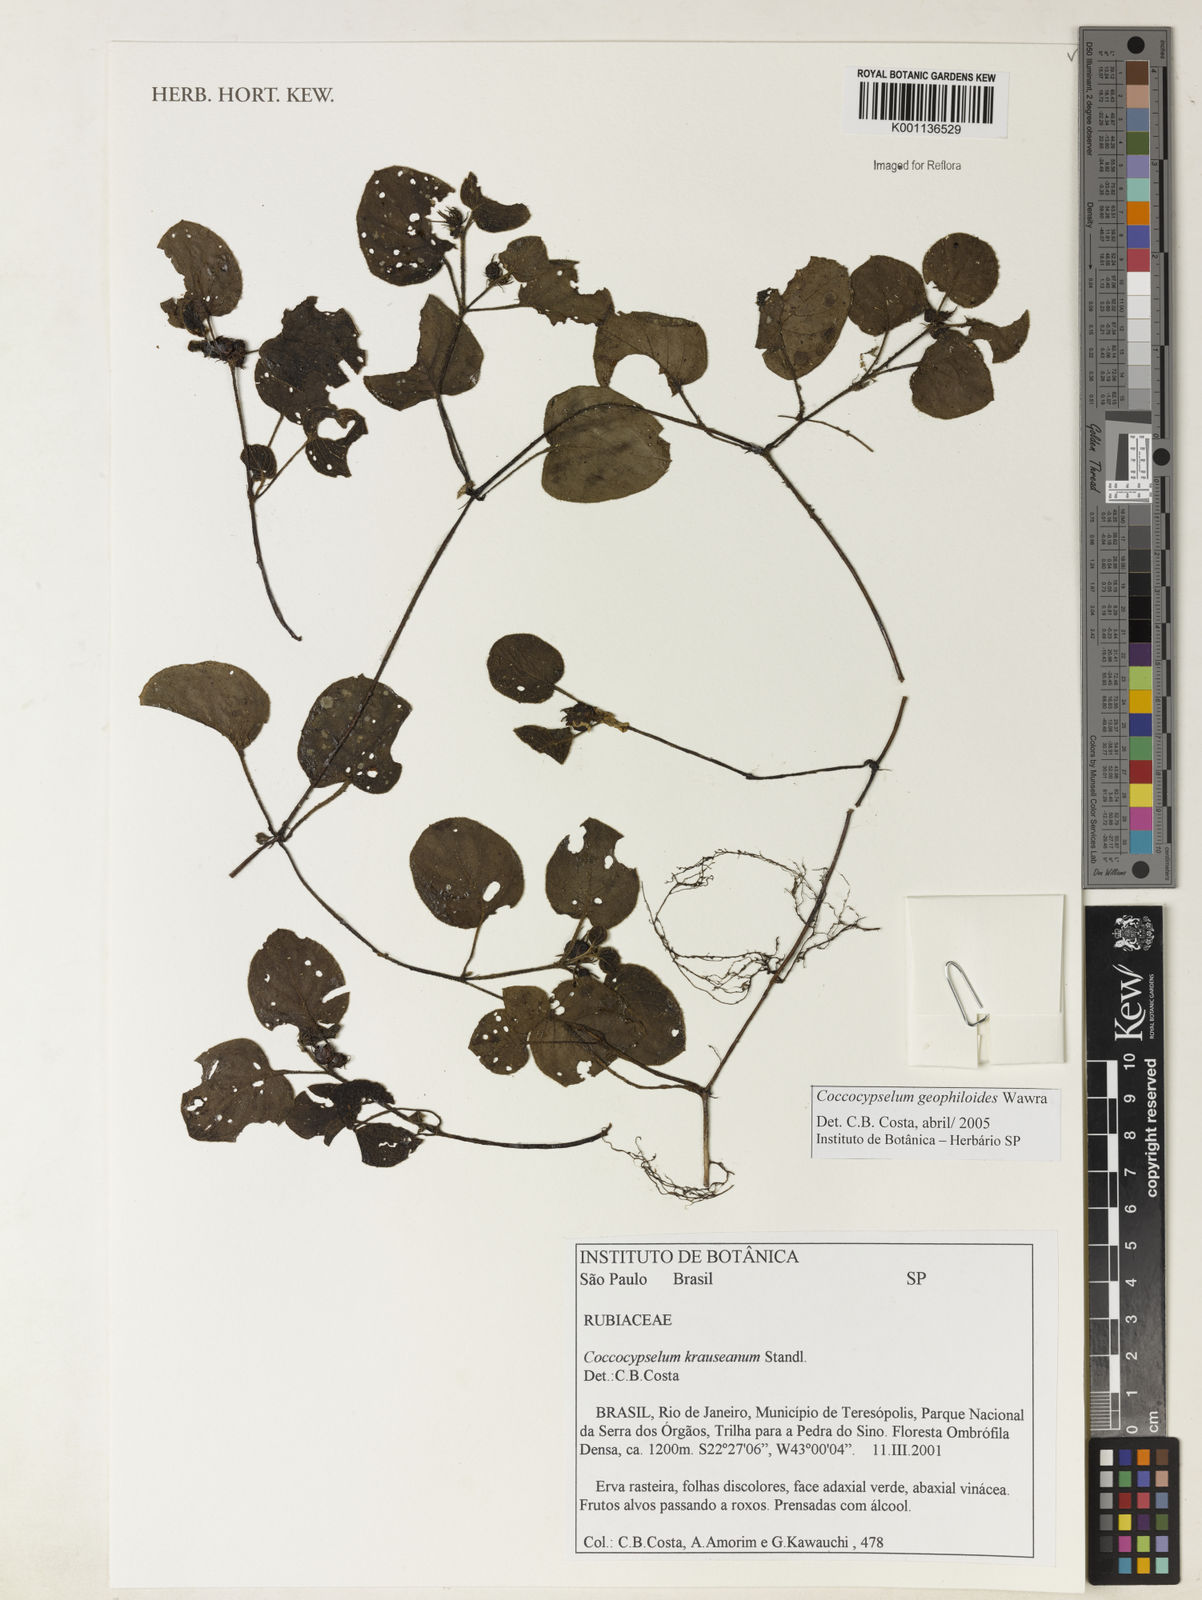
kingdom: Plantae
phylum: Tracheophyta
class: Magnoliopsida
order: Gentianales
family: Rubiaceae
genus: Coccocypselum
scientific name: Coccocypselum geophiloides
